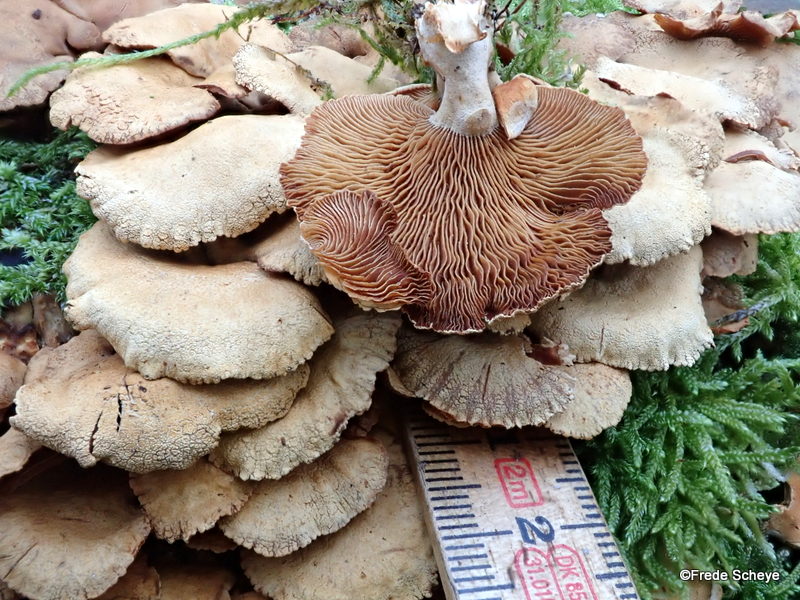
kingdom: Fungi
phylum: Basidiomycota
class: Agaricomycetes
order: Agaricales
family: Mycenaceae
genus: Panellus
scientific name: Panellus stipticus
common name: kliddet epaulethat
